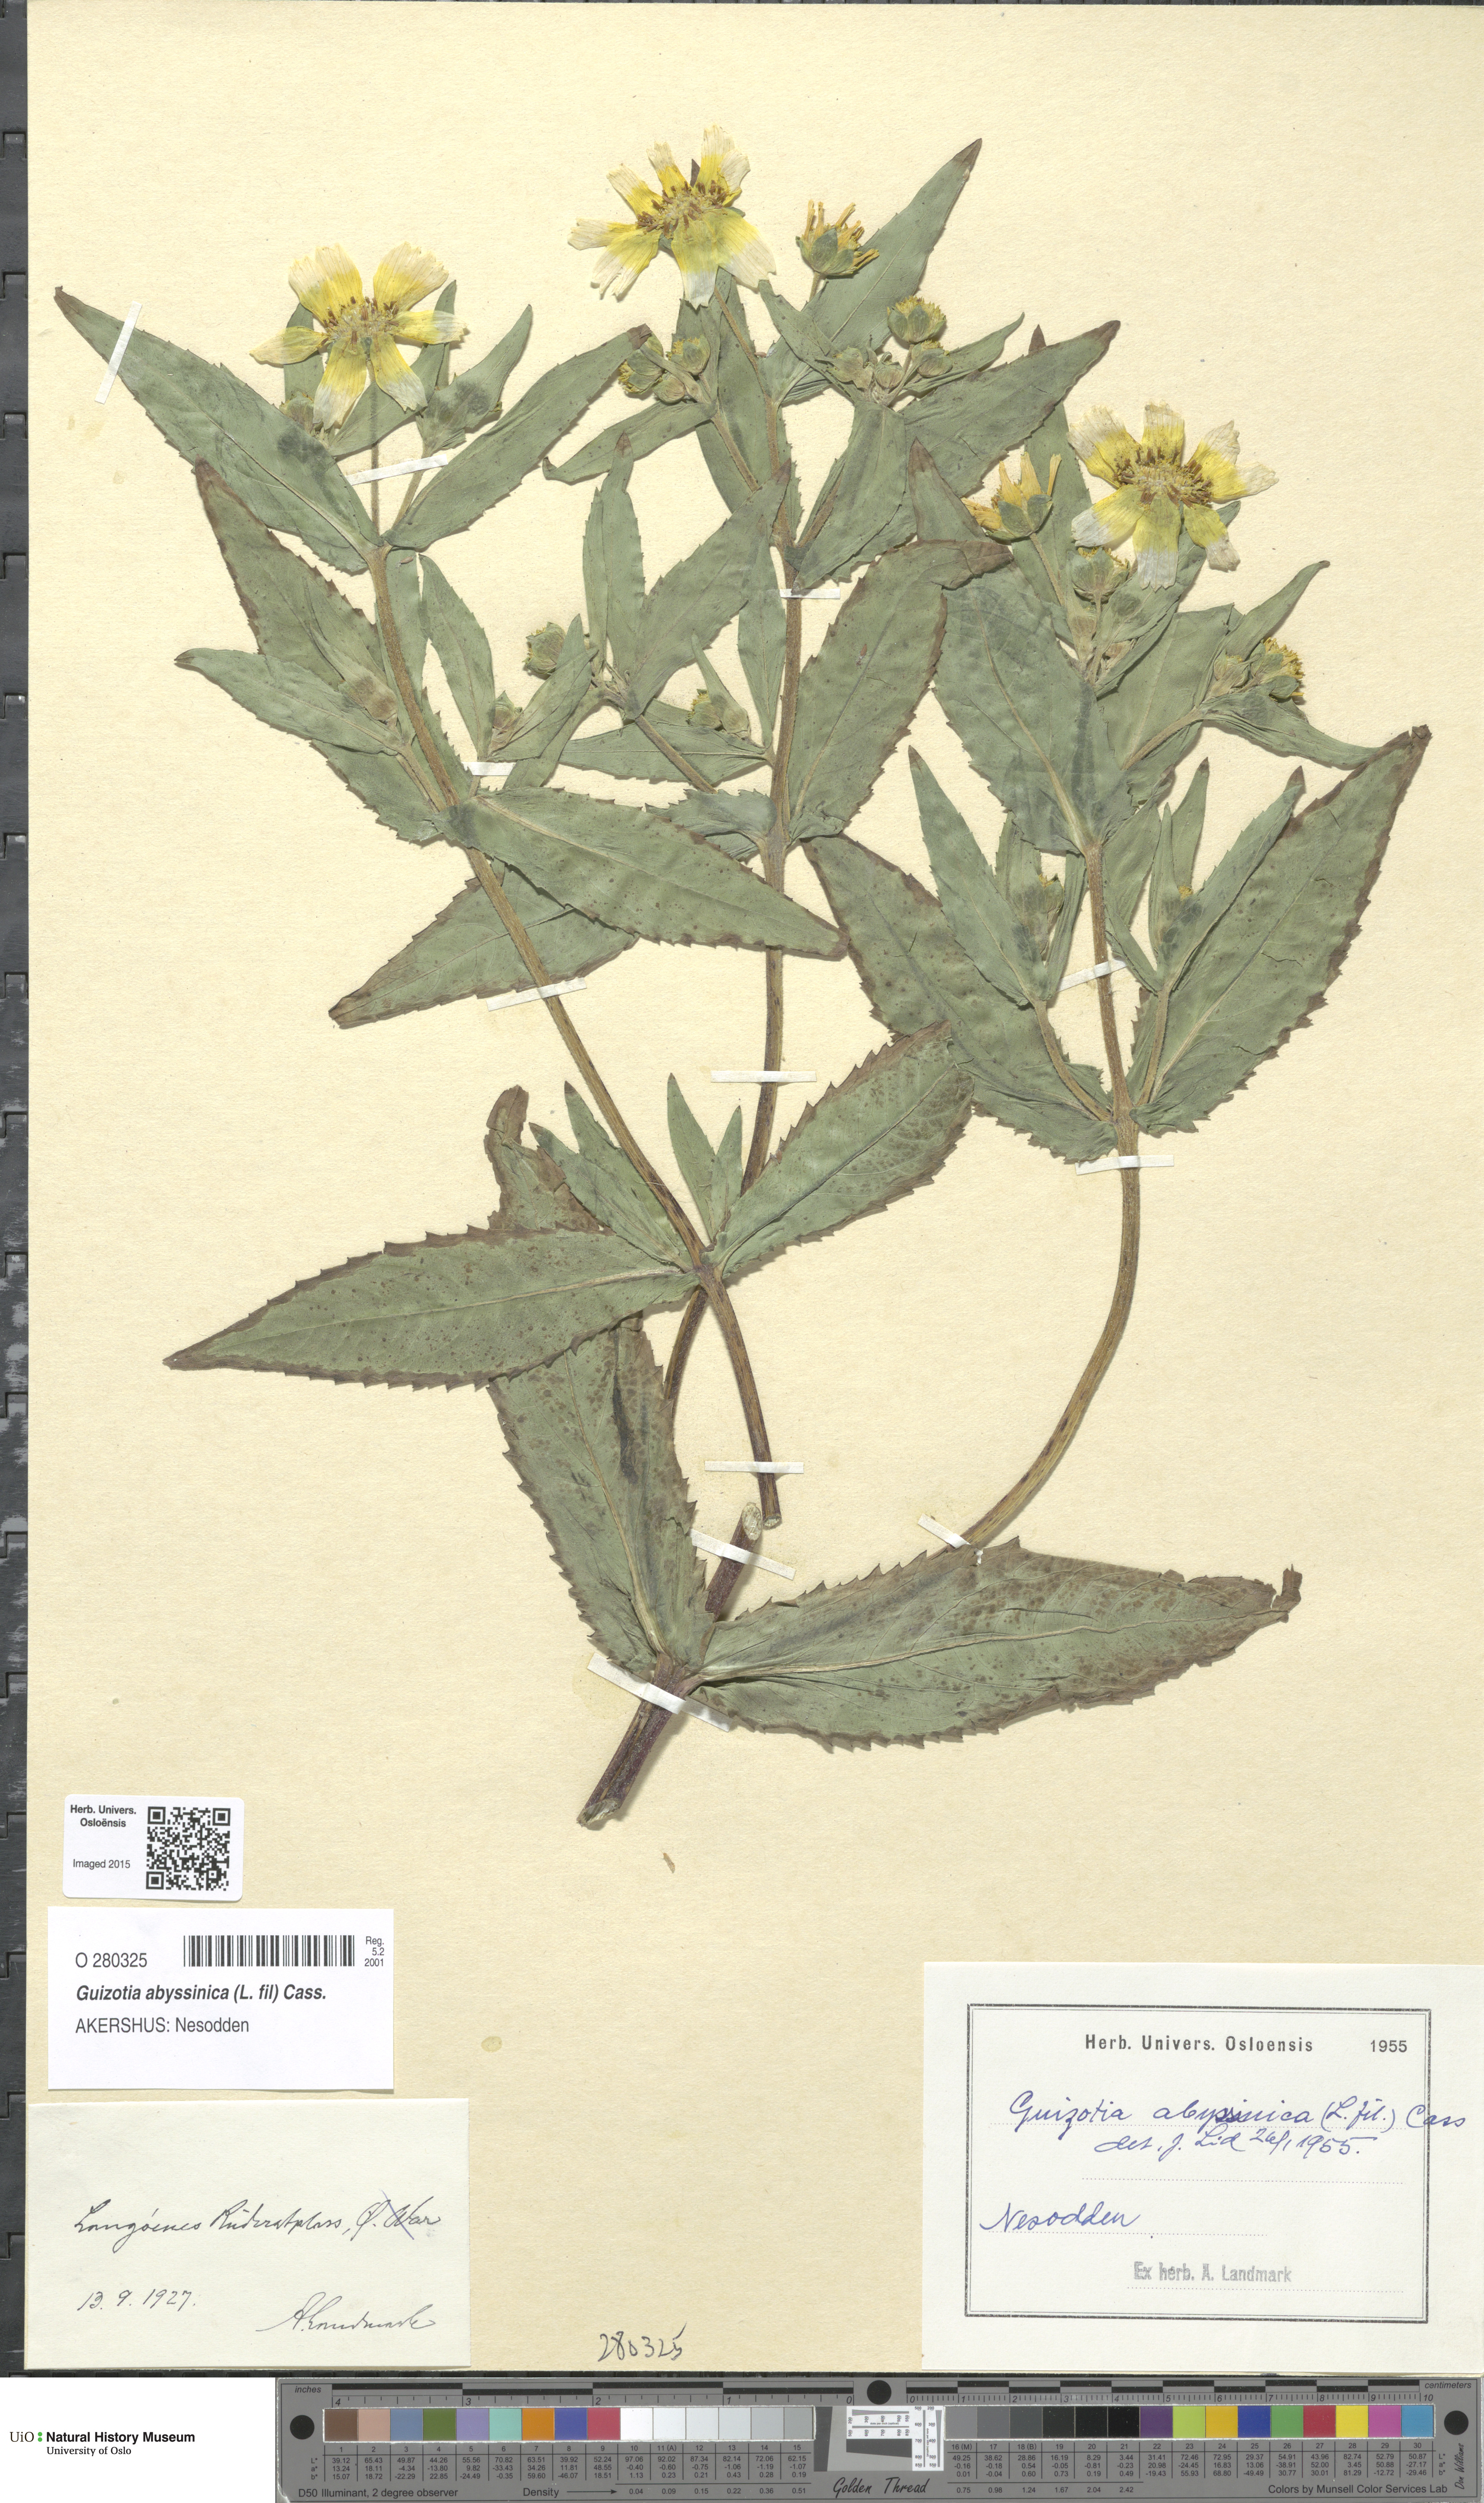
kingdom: Plantae
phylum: Tracheophyta
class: Magnoliopsida
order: Asterales
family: Asteraceae
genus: Guizotia
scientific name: Guizotia abyssinica
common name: Niger
